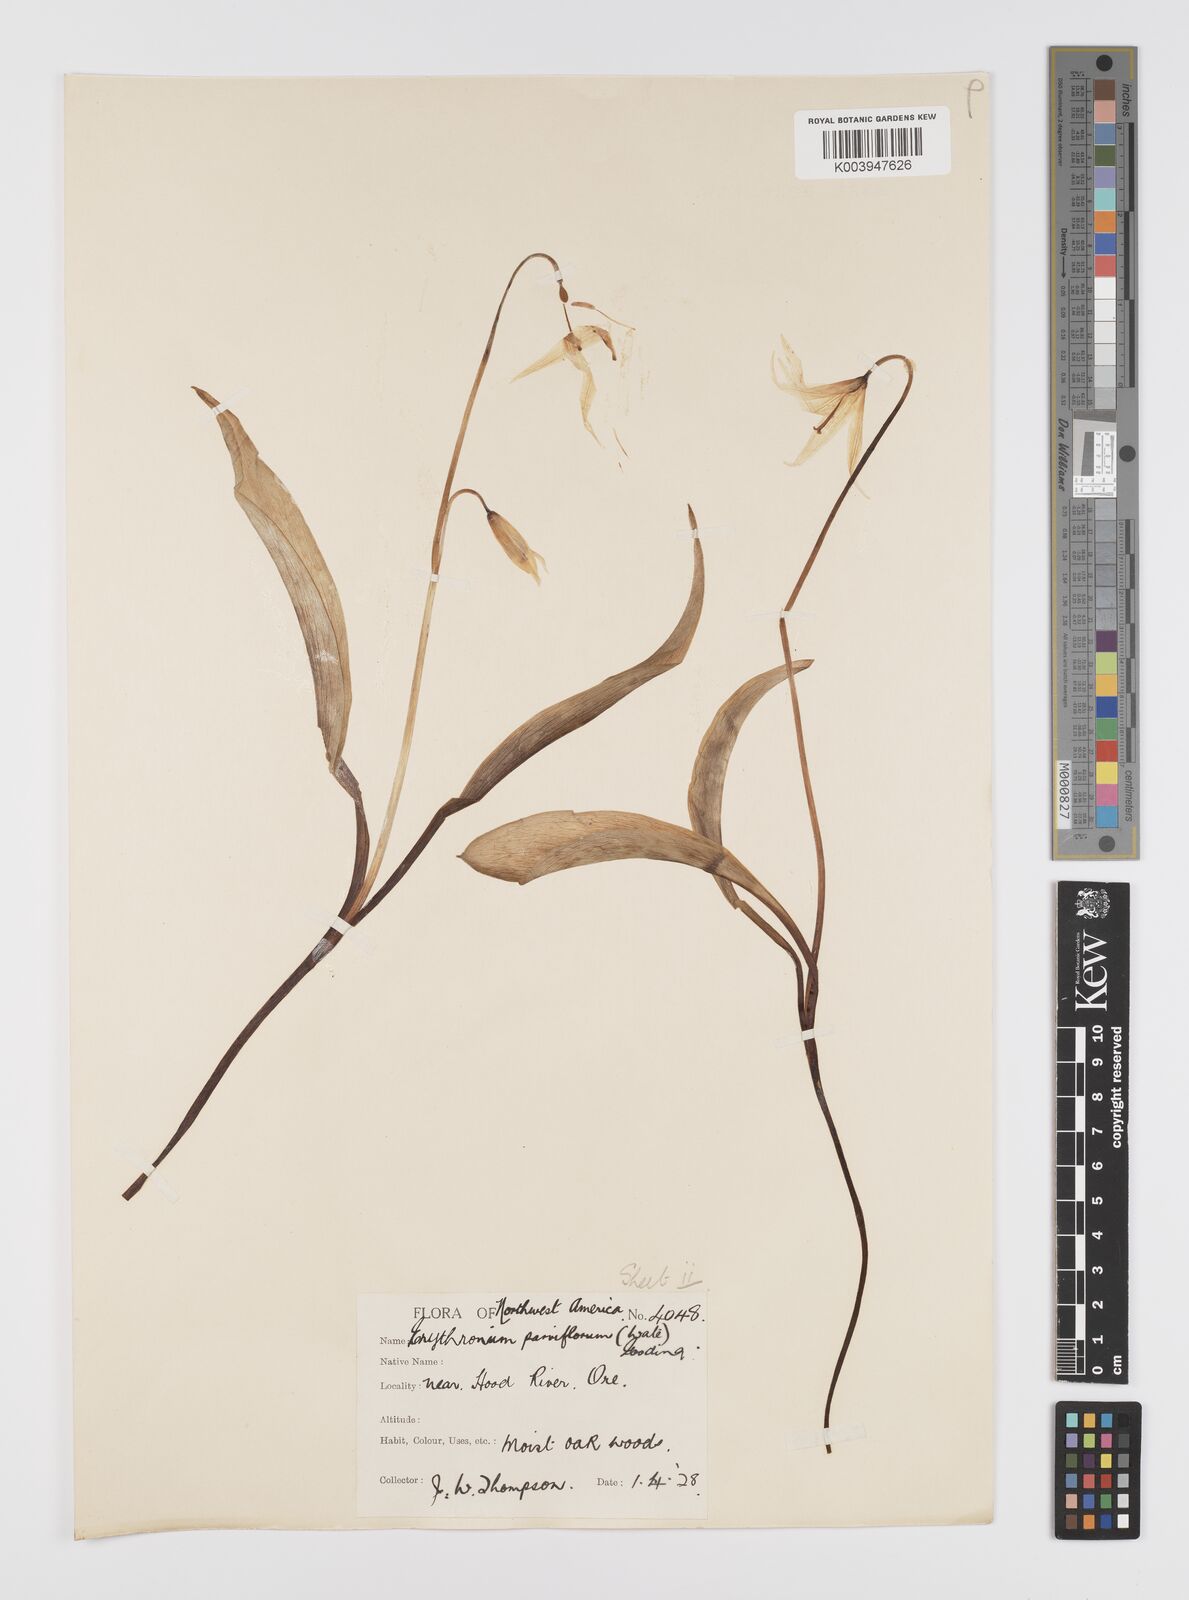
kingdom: Plantae
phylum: Tracheophyta
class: Liliopsida
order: Liliales
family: Liliaceae
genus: Erythronium
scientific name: Erythronium grandiflorum
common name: Avalanche-lily
